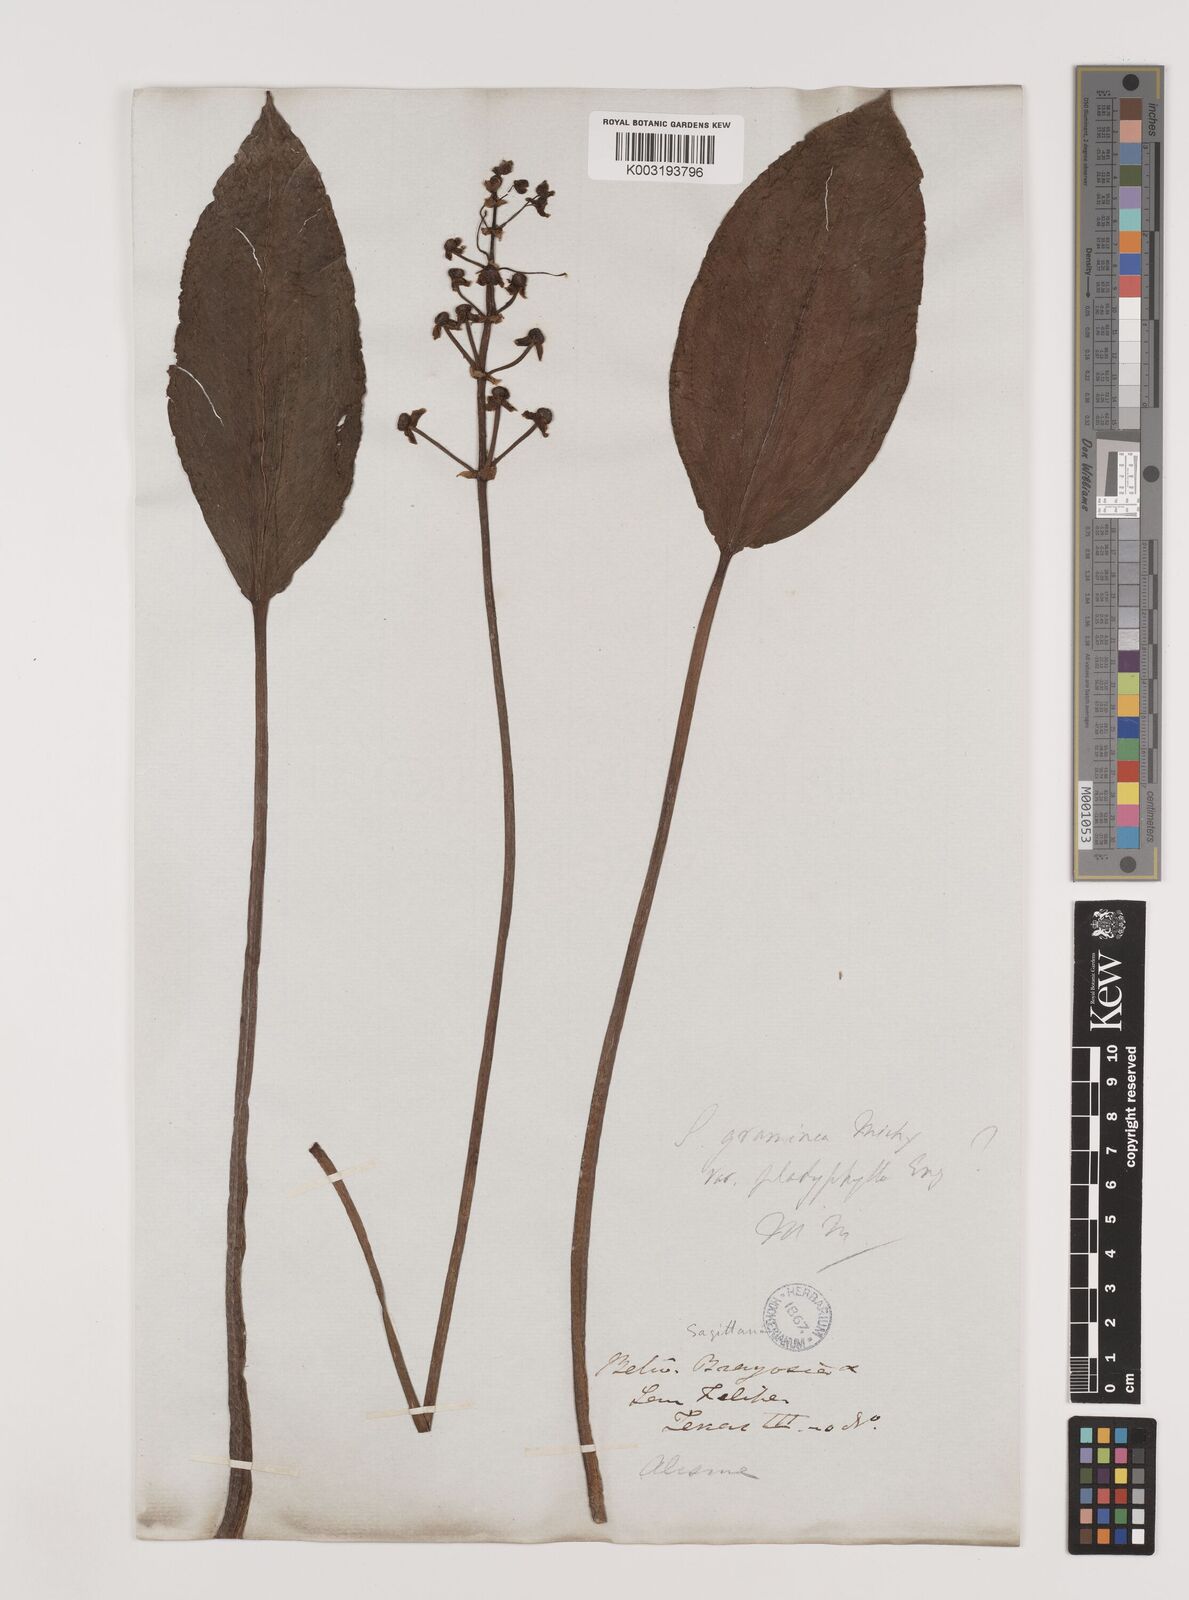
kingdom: Plantae
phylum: Tracheophyta
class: Liliopsida
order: Alismatales
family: Alismataceae
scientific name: Alismataceae
